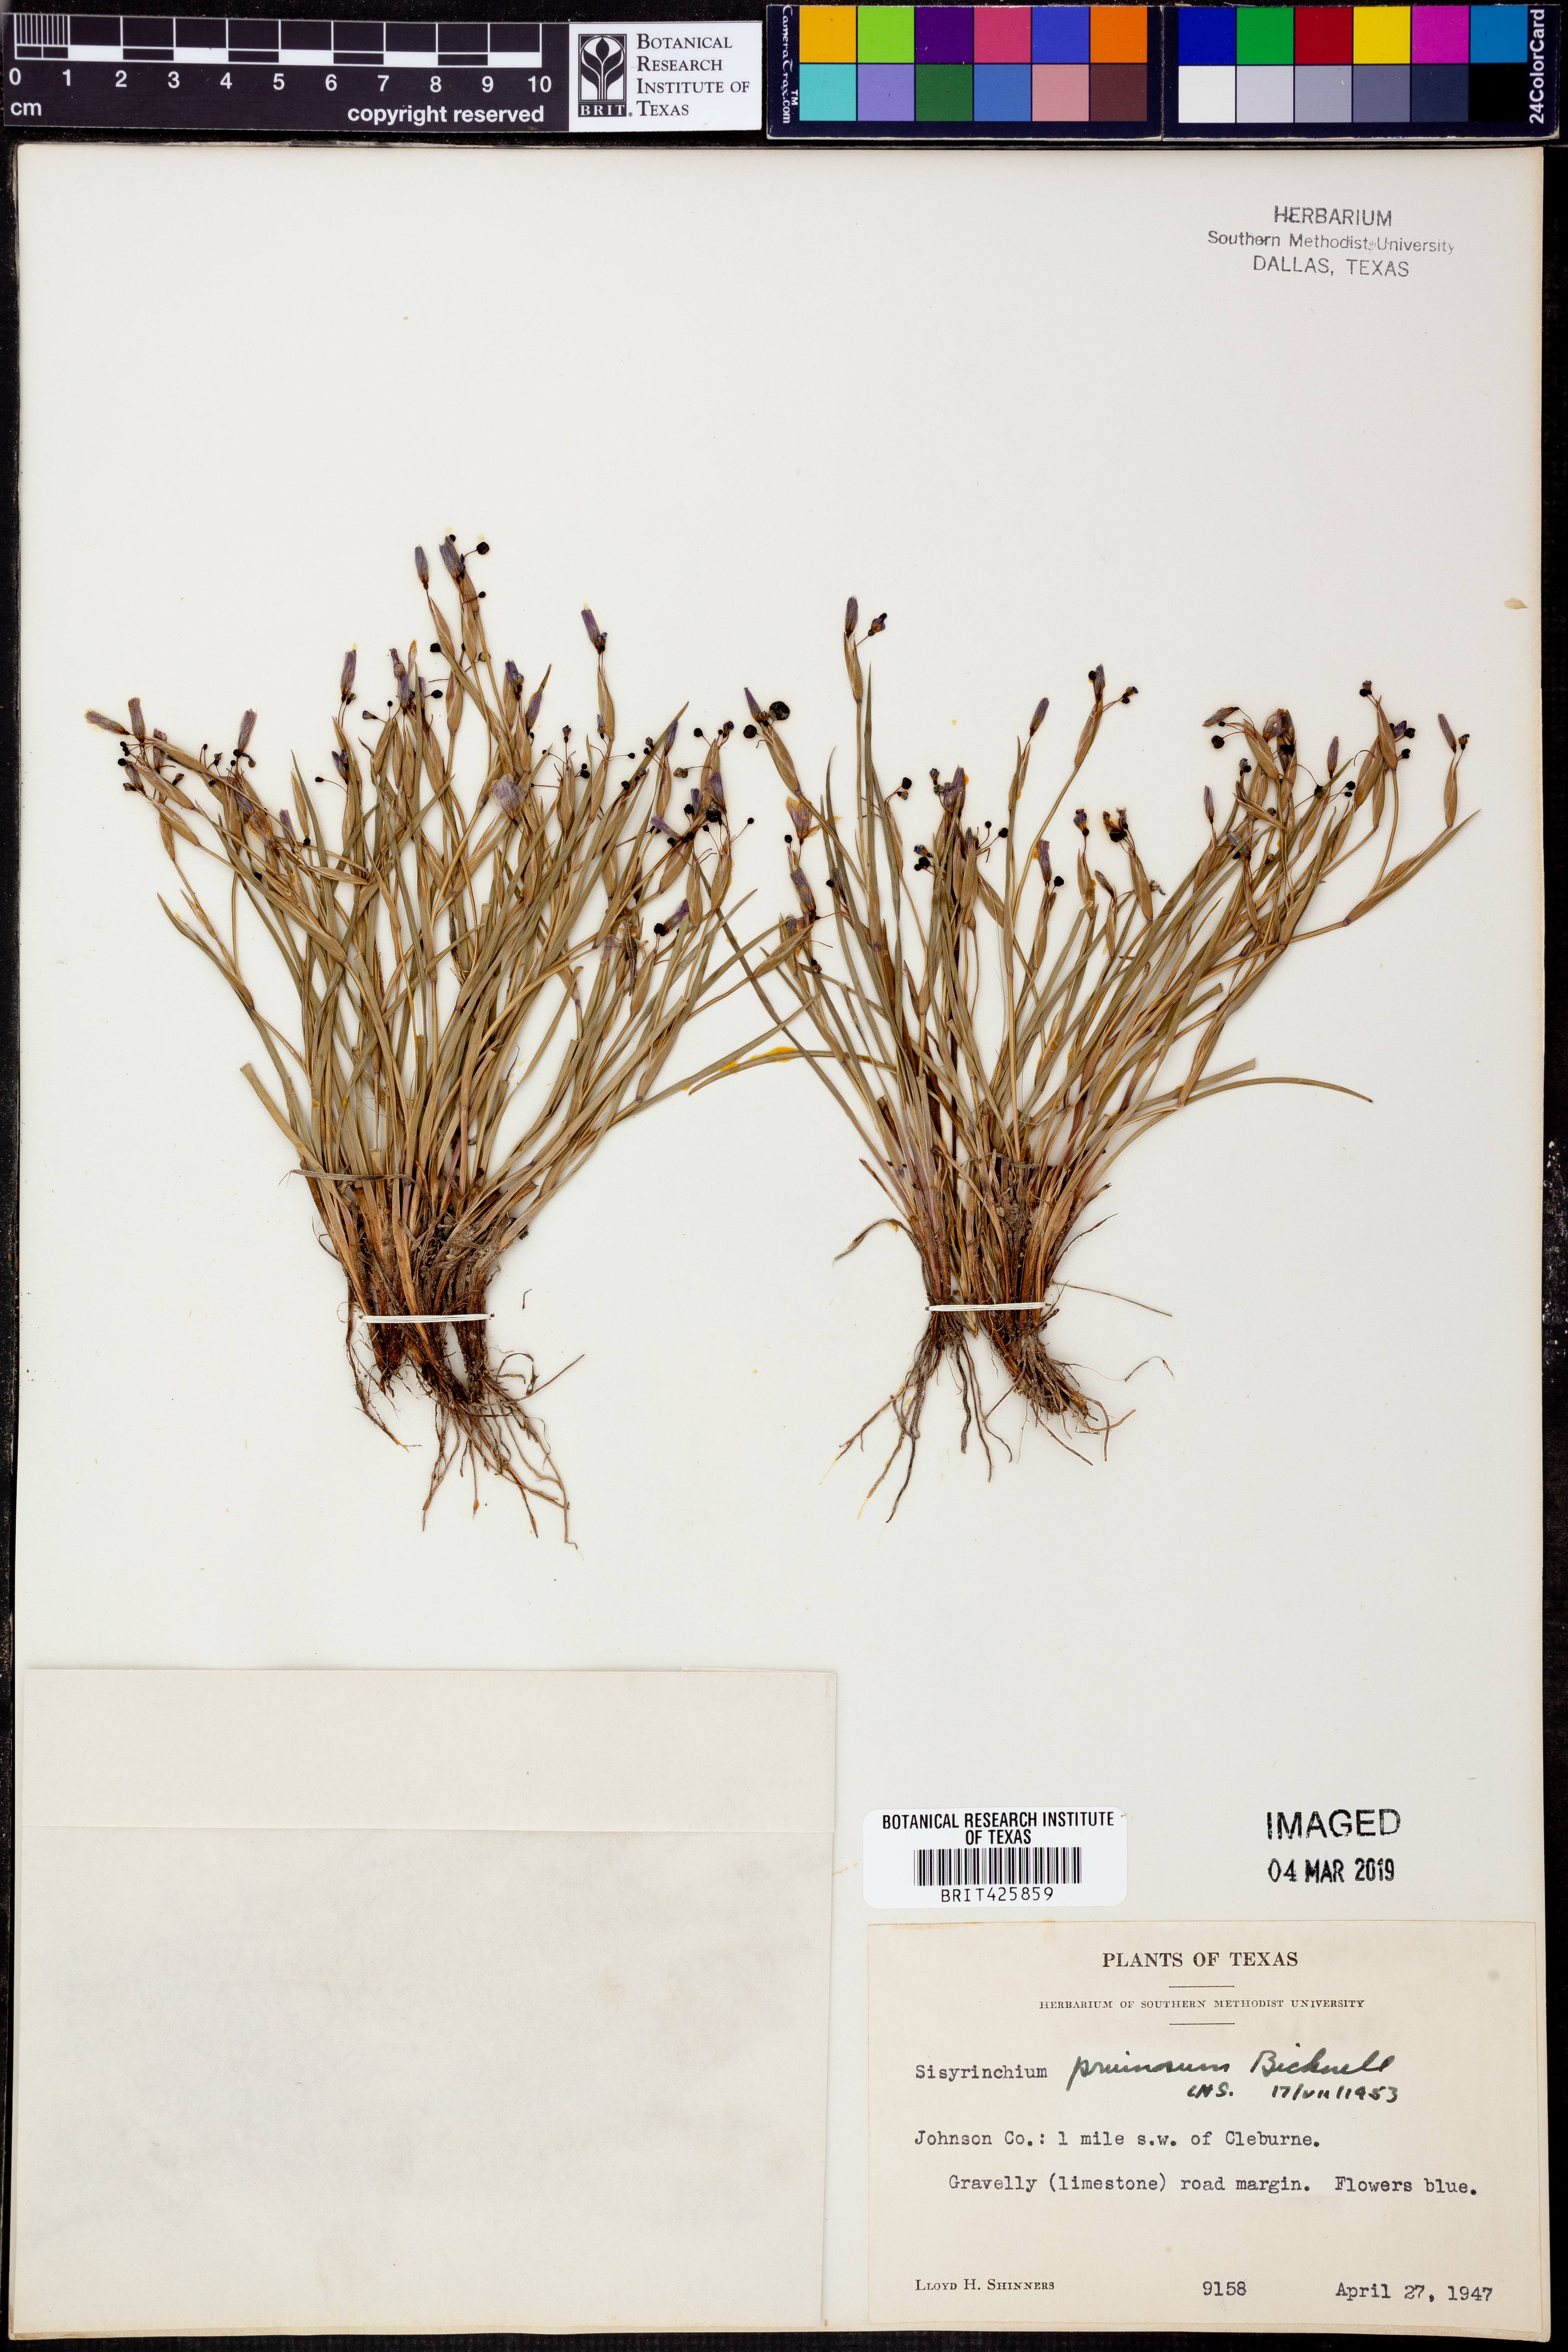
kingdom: Plantae
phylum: Tracheophyta
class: Liliopsida
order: Asparagales
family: Iridaceae
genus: Sisyrinchium
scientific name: Sisyrinchium pruinosum
